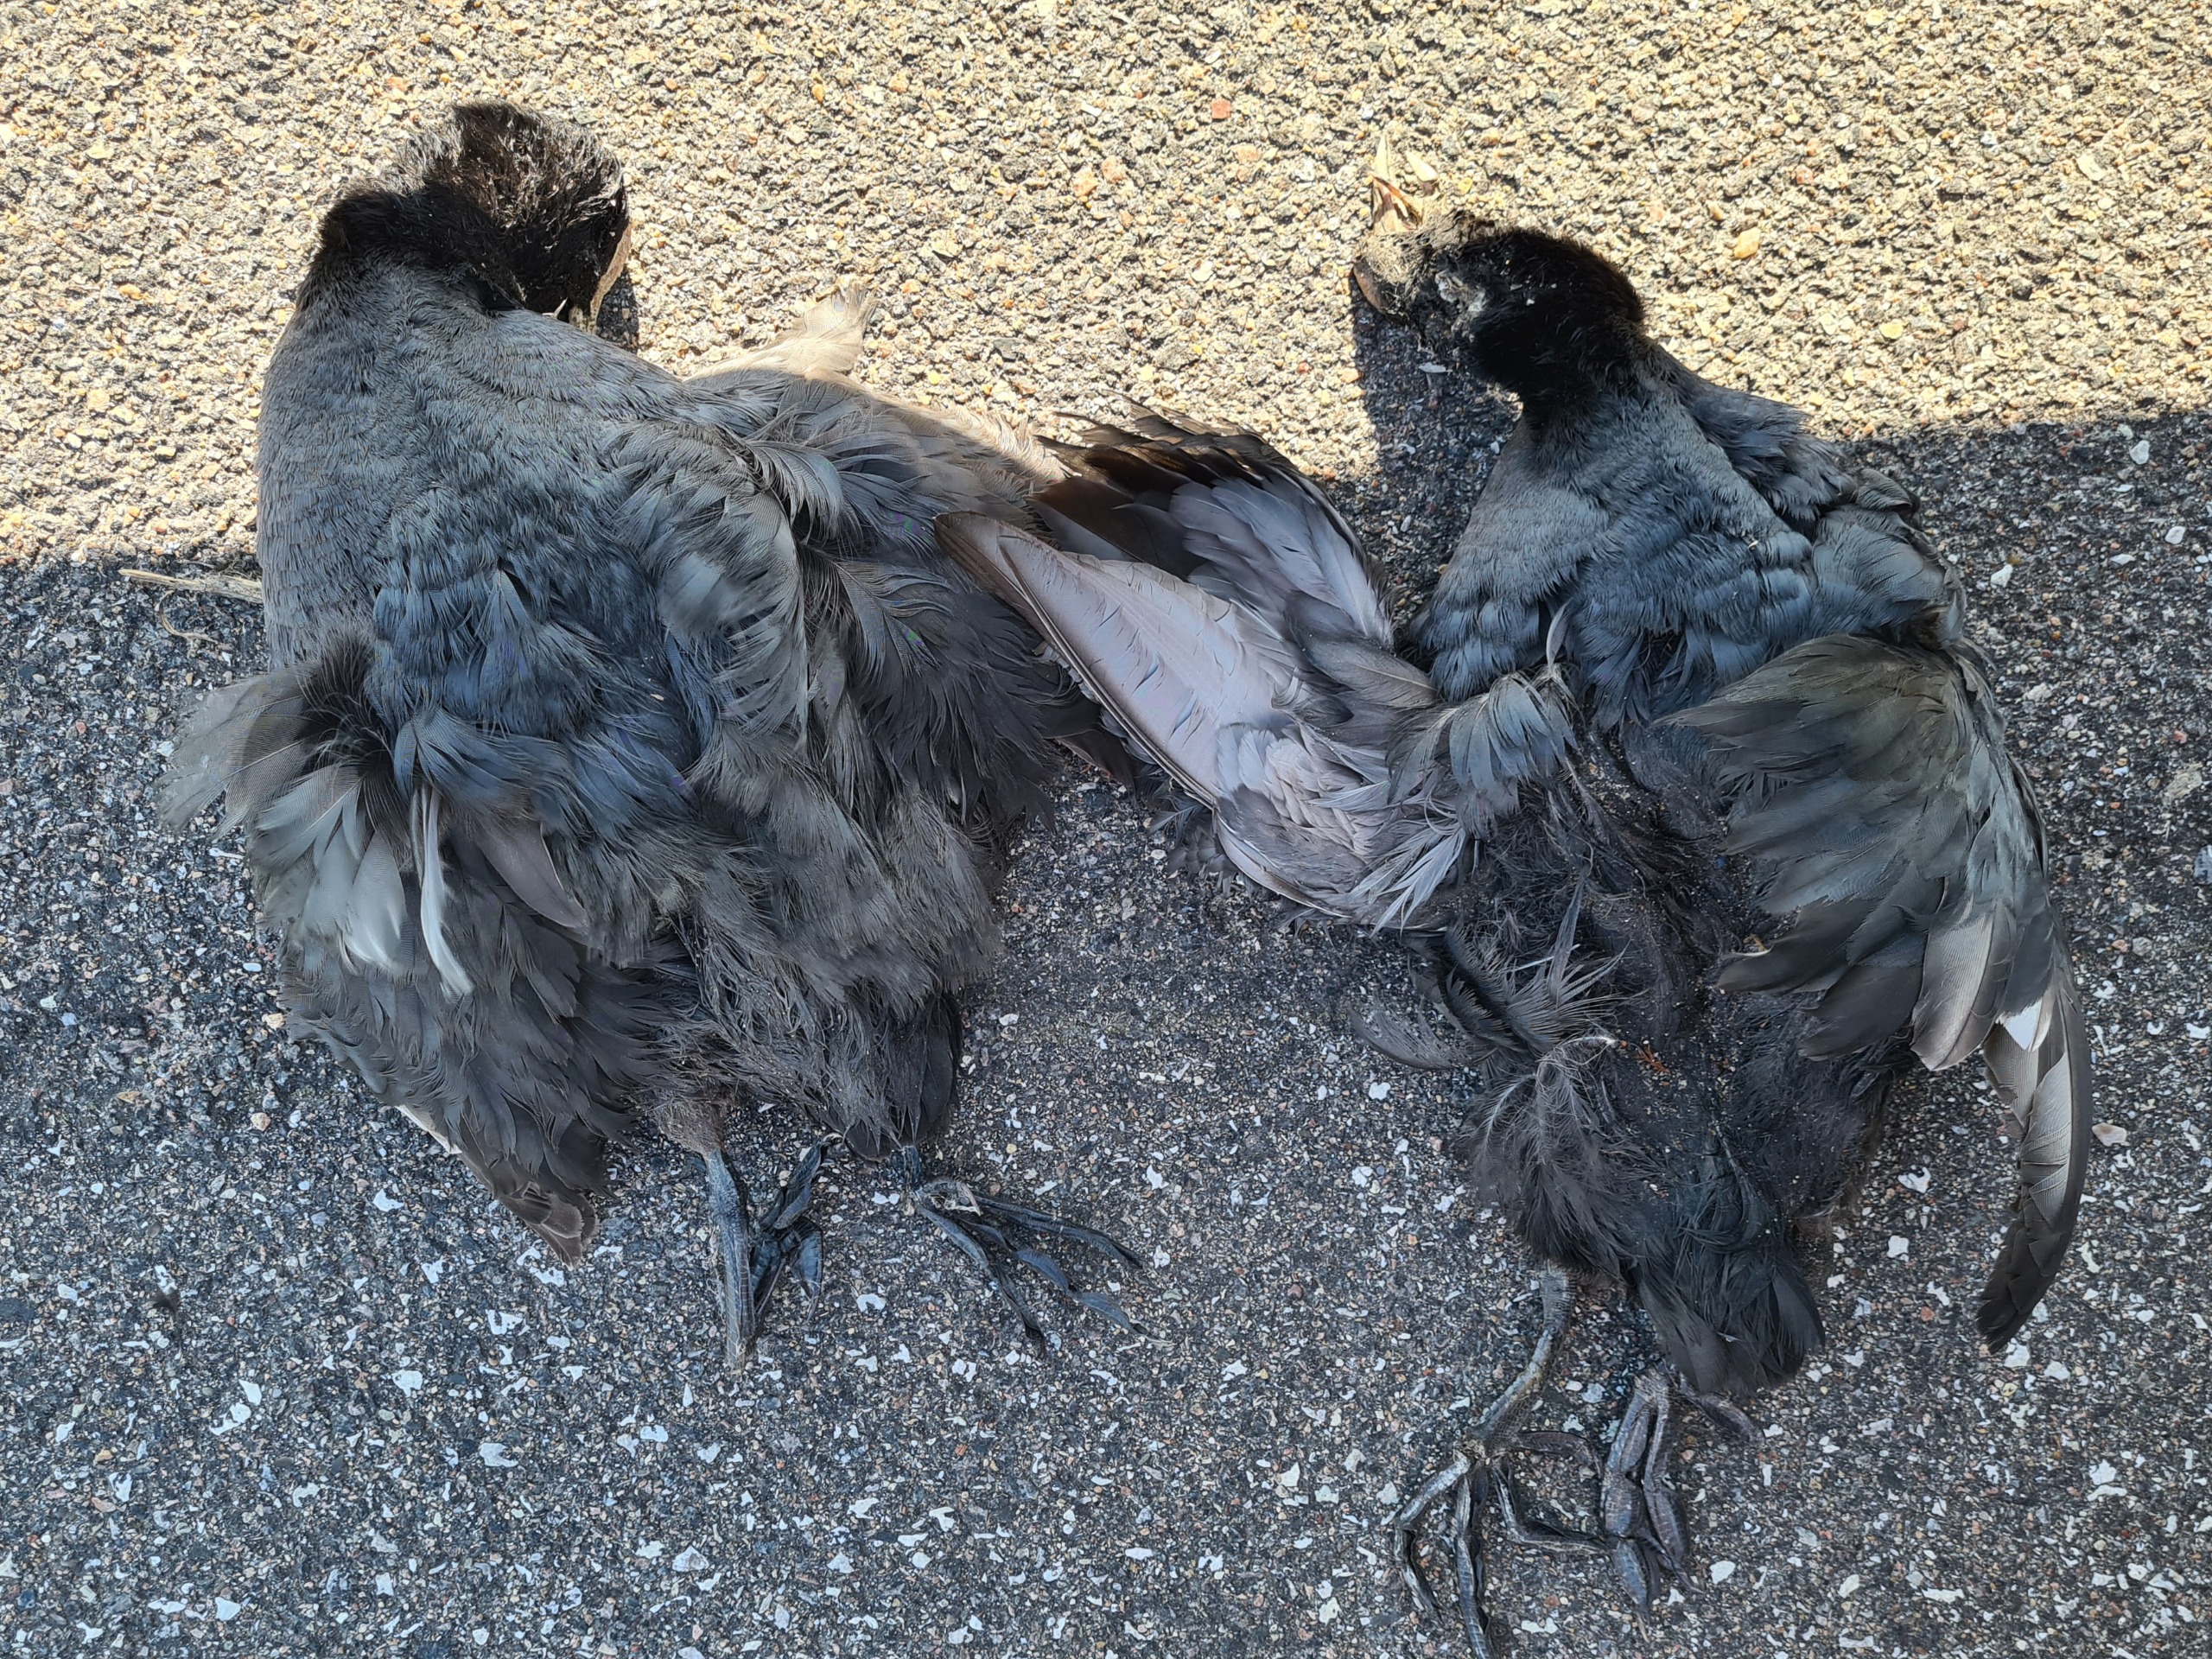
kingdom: Animalia
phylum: Chordata
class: Aves
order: Gruiformes
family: Rallidae
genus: Fulica
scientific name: Fulica atra
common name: Blishøne
